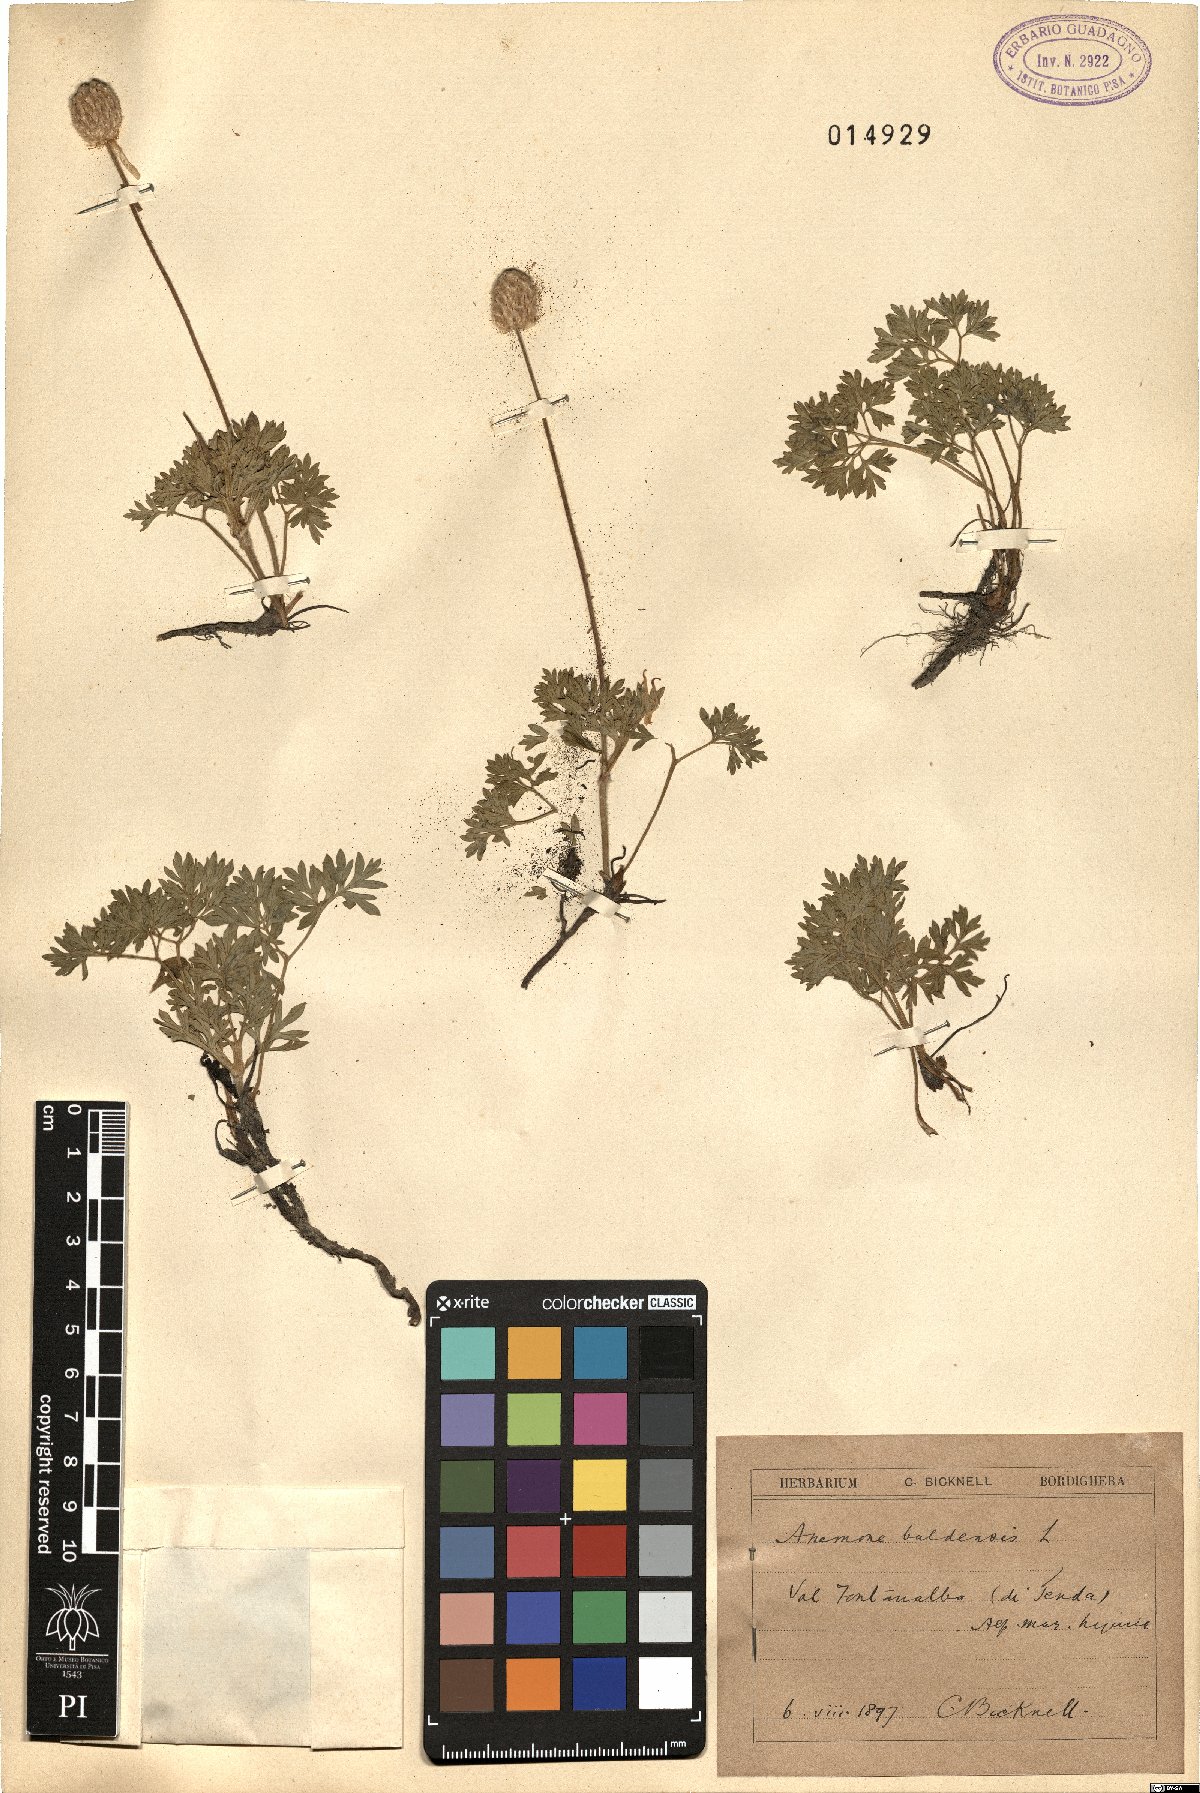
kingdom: Plantae
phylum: Tracheophyta
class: Magnoliopsida
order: Ranunculales
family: Ranunculaceae
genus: Anemone
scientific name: Anemone baldensis
